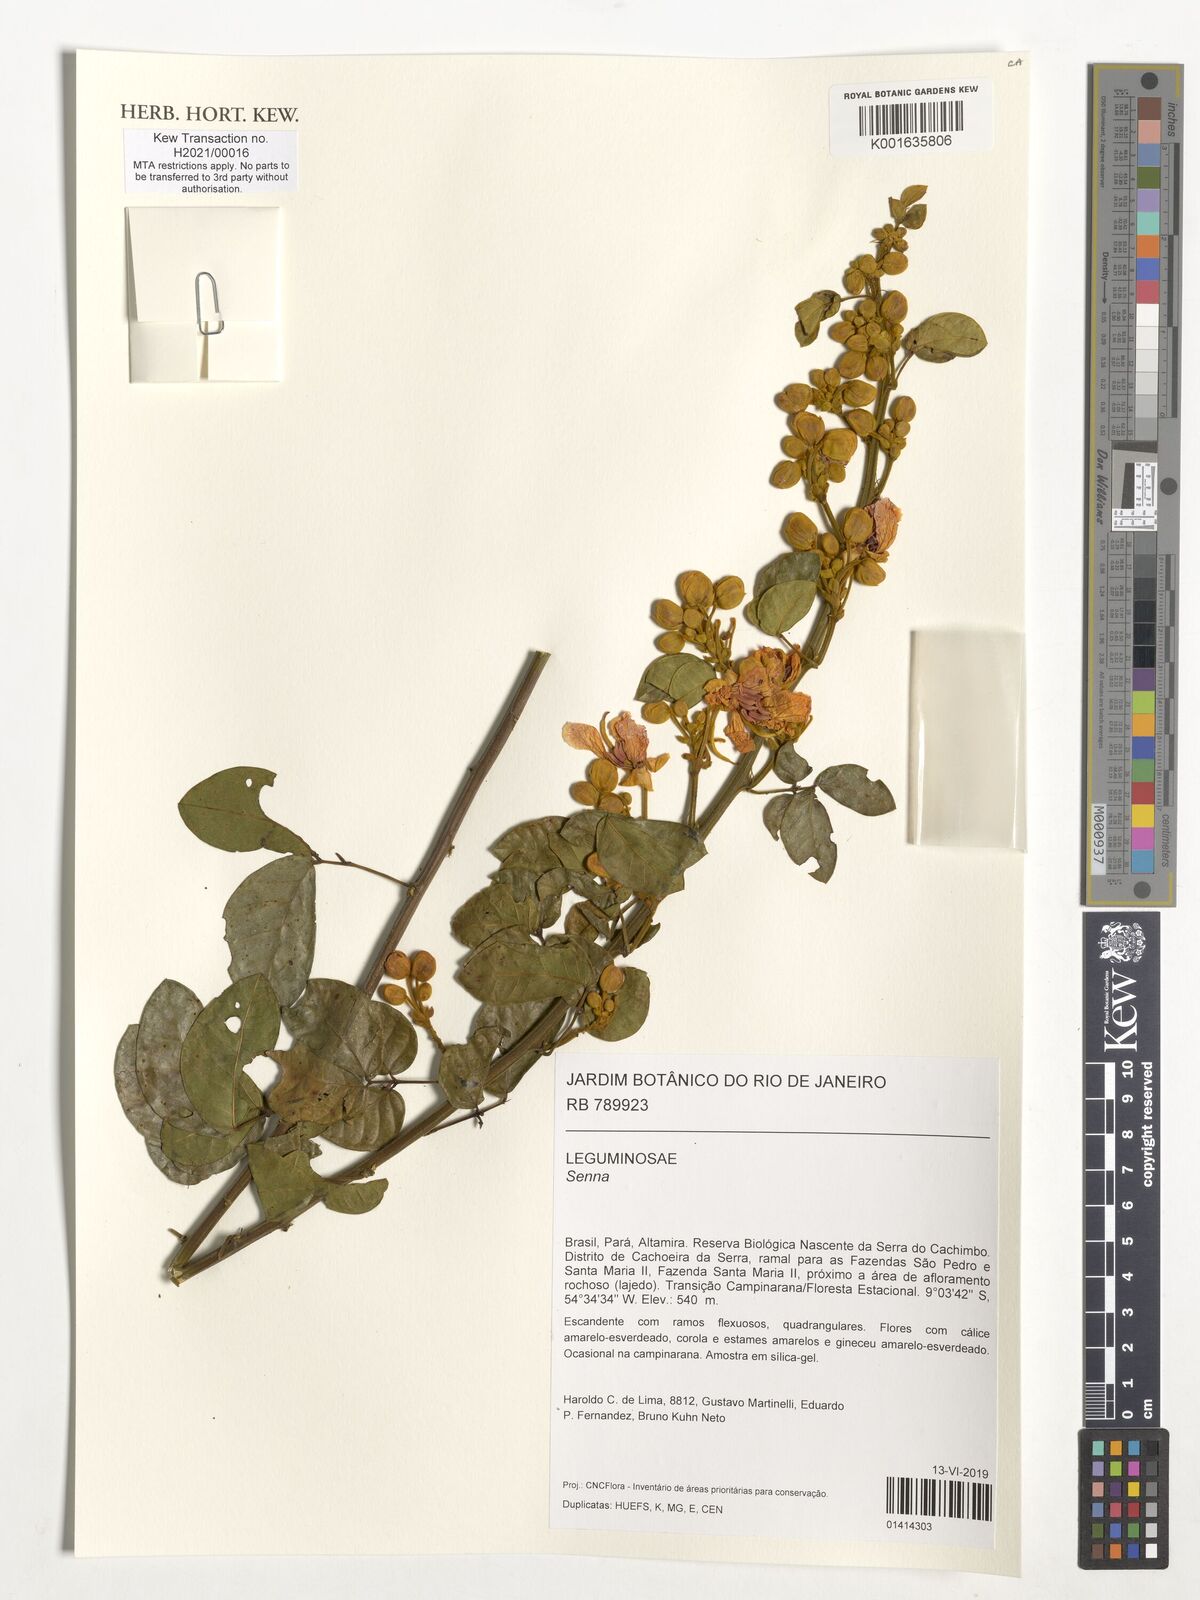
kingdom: Plantae
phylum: Tracheophyta
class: Magnoliopsida
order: Fabales
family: Fabaceae
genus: Senna
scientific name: Senna
